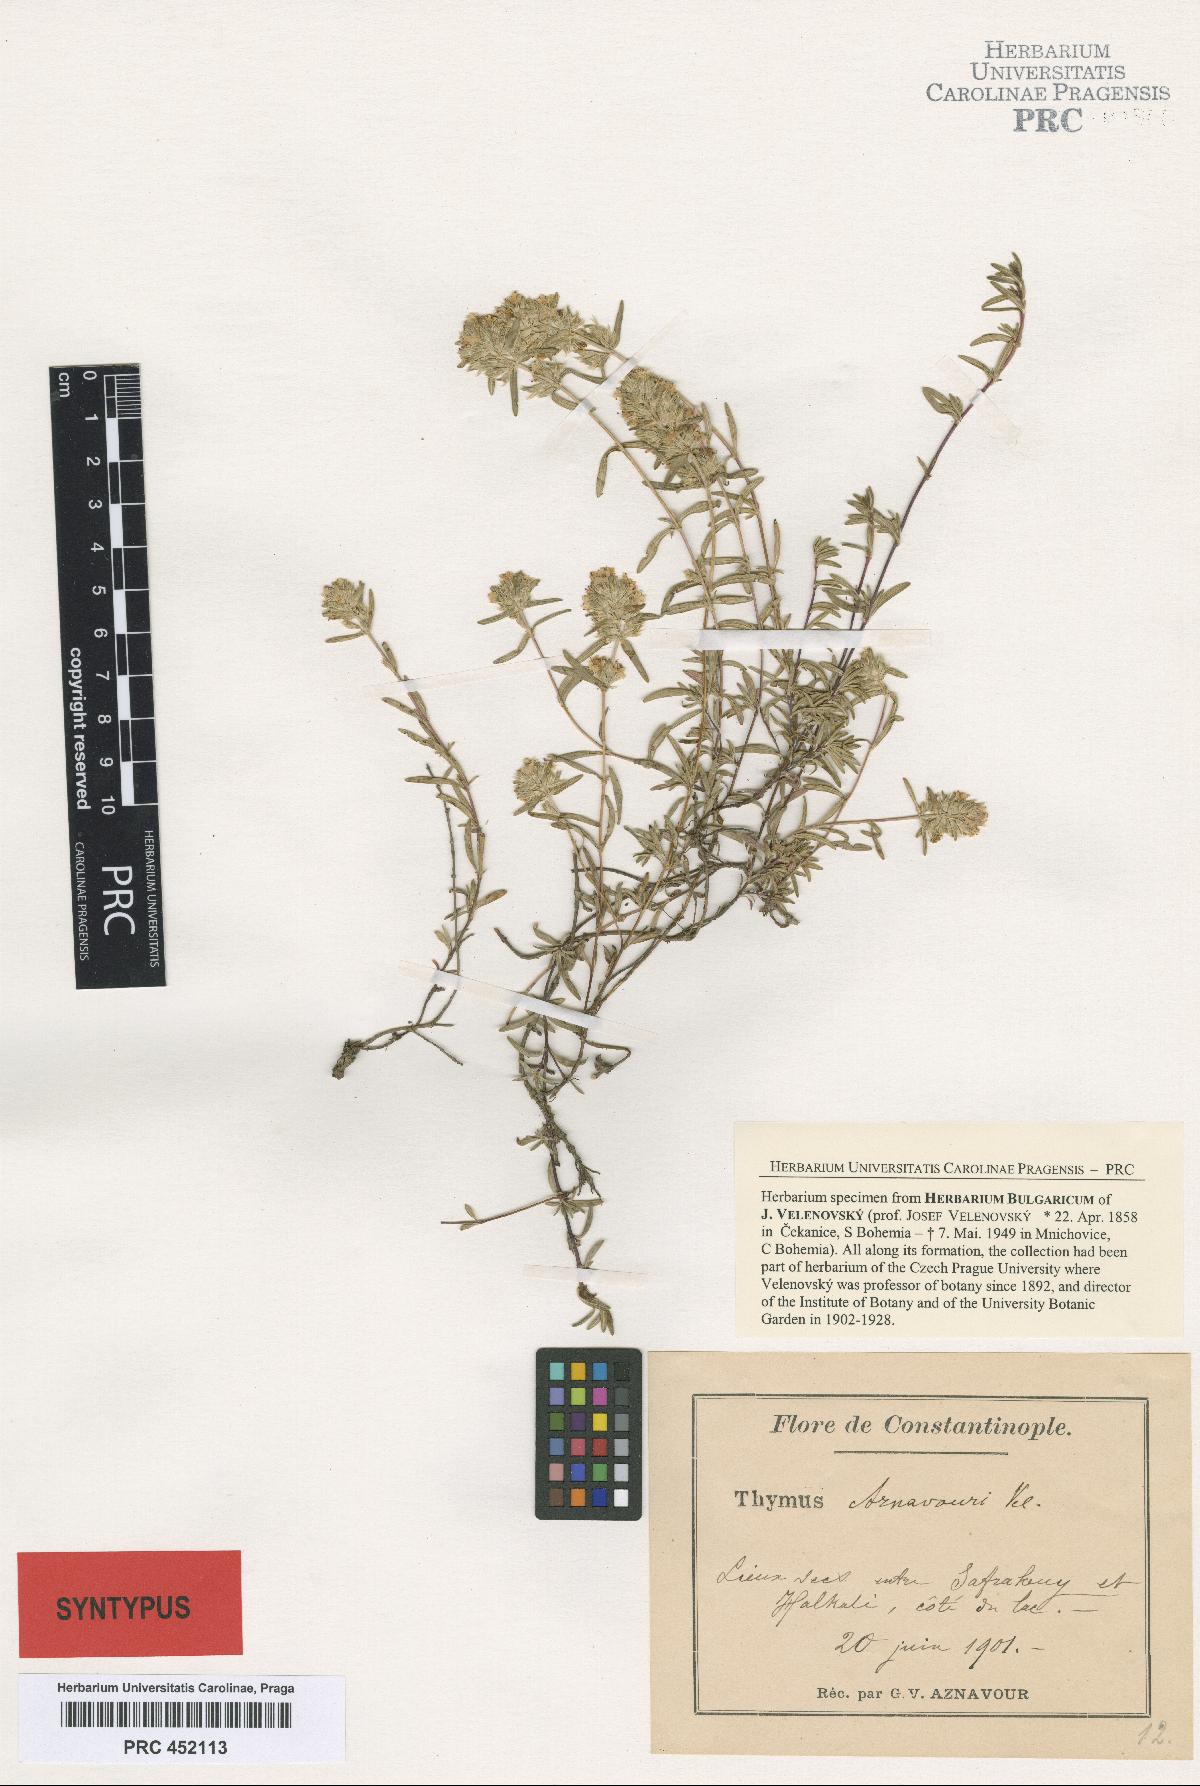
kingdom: Plantae
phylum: Tracheophyta
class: Magnoliopsida
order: Lamiales
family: Lamiaceae
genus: Thymus
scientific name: Thymus aznavourii
